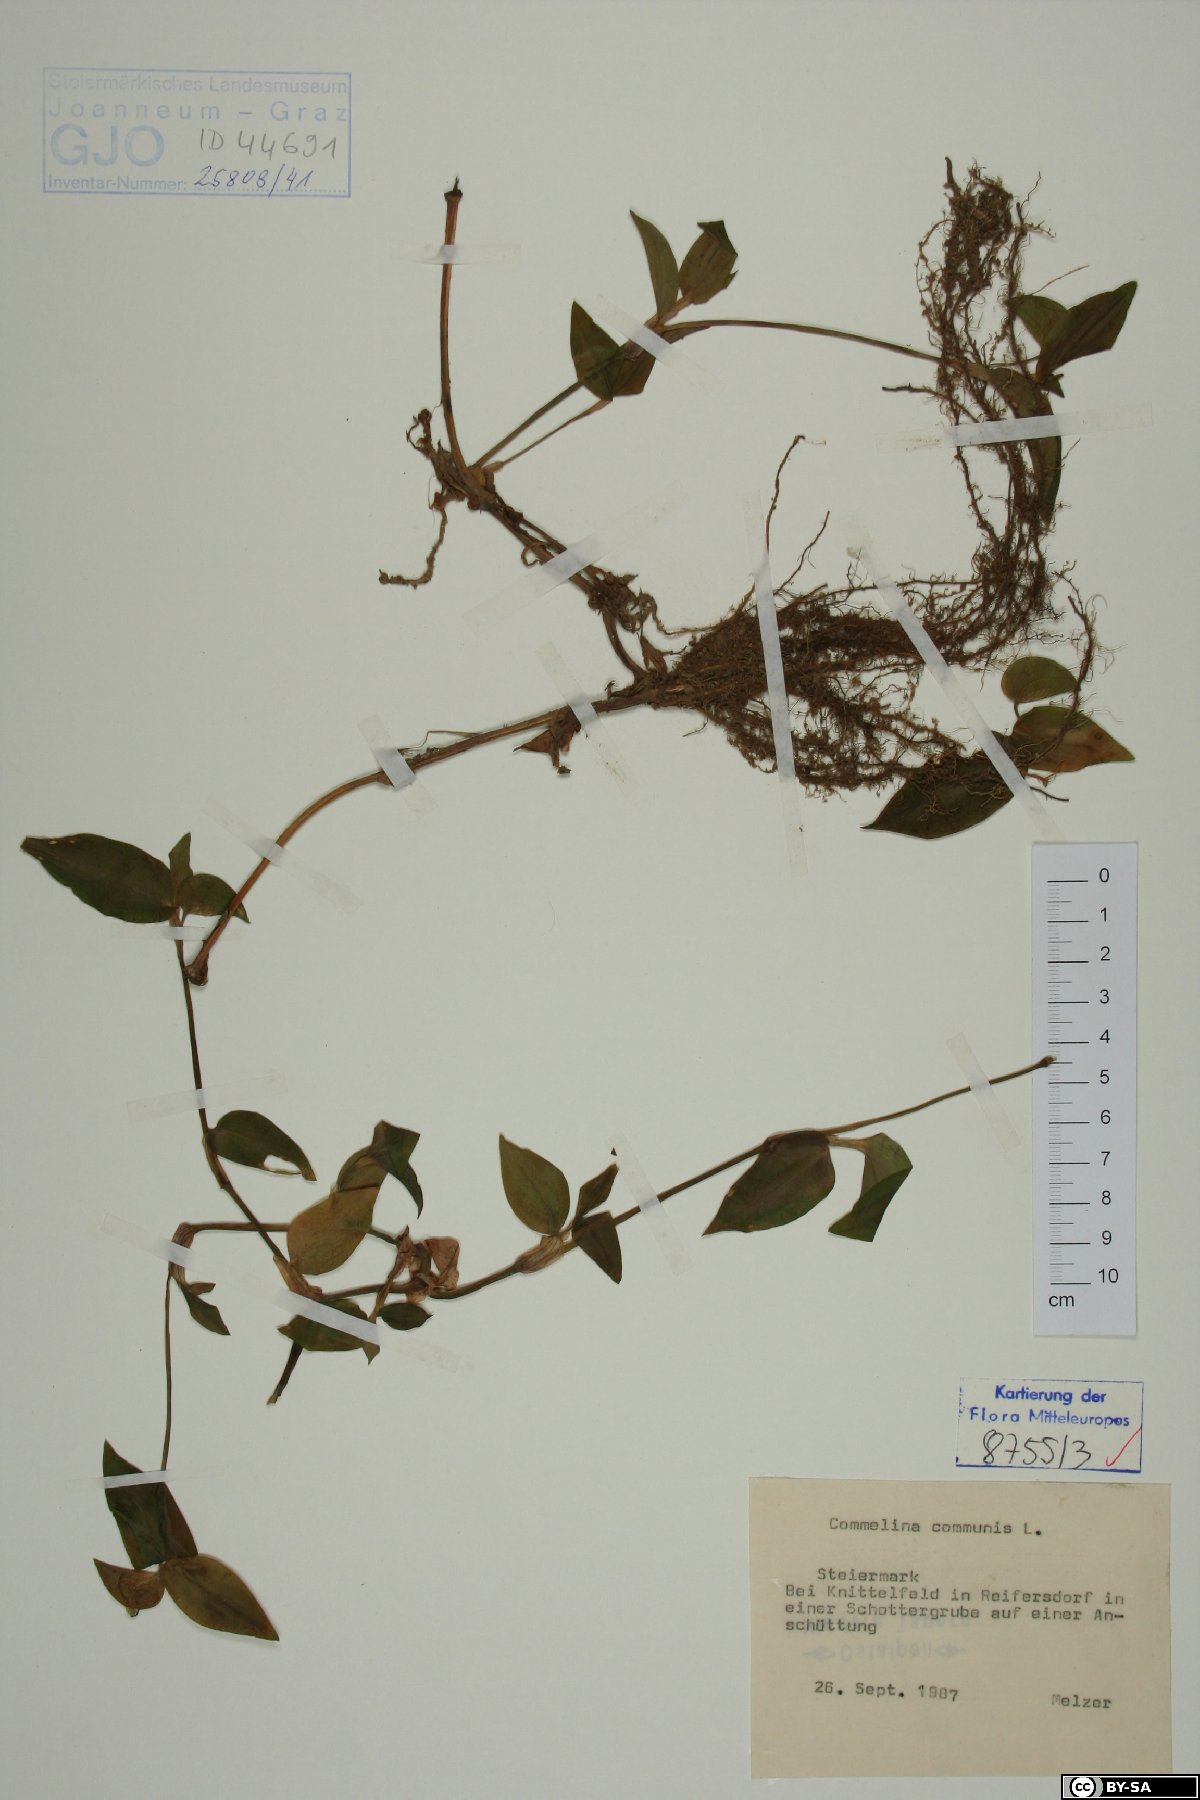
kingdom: Plantae
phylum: Tracheophyta
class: Liliopsida
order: Commelinales
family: Commelinaceae
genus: Commelina
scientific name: Commelina communis
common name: Asiatic dayflower
